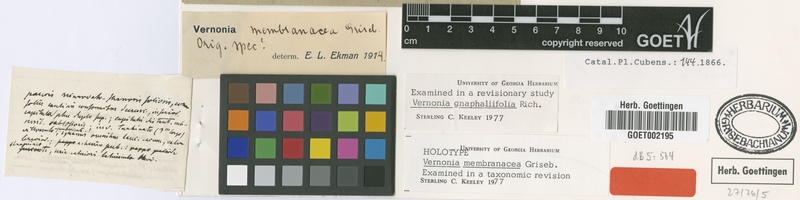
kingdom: Plantae
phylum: Tracheophyta
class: Magnoliopsida
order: Asterales
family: Asteraceae
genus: Lepidaploa
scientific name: Lepidaploa gnaphaliifolia
